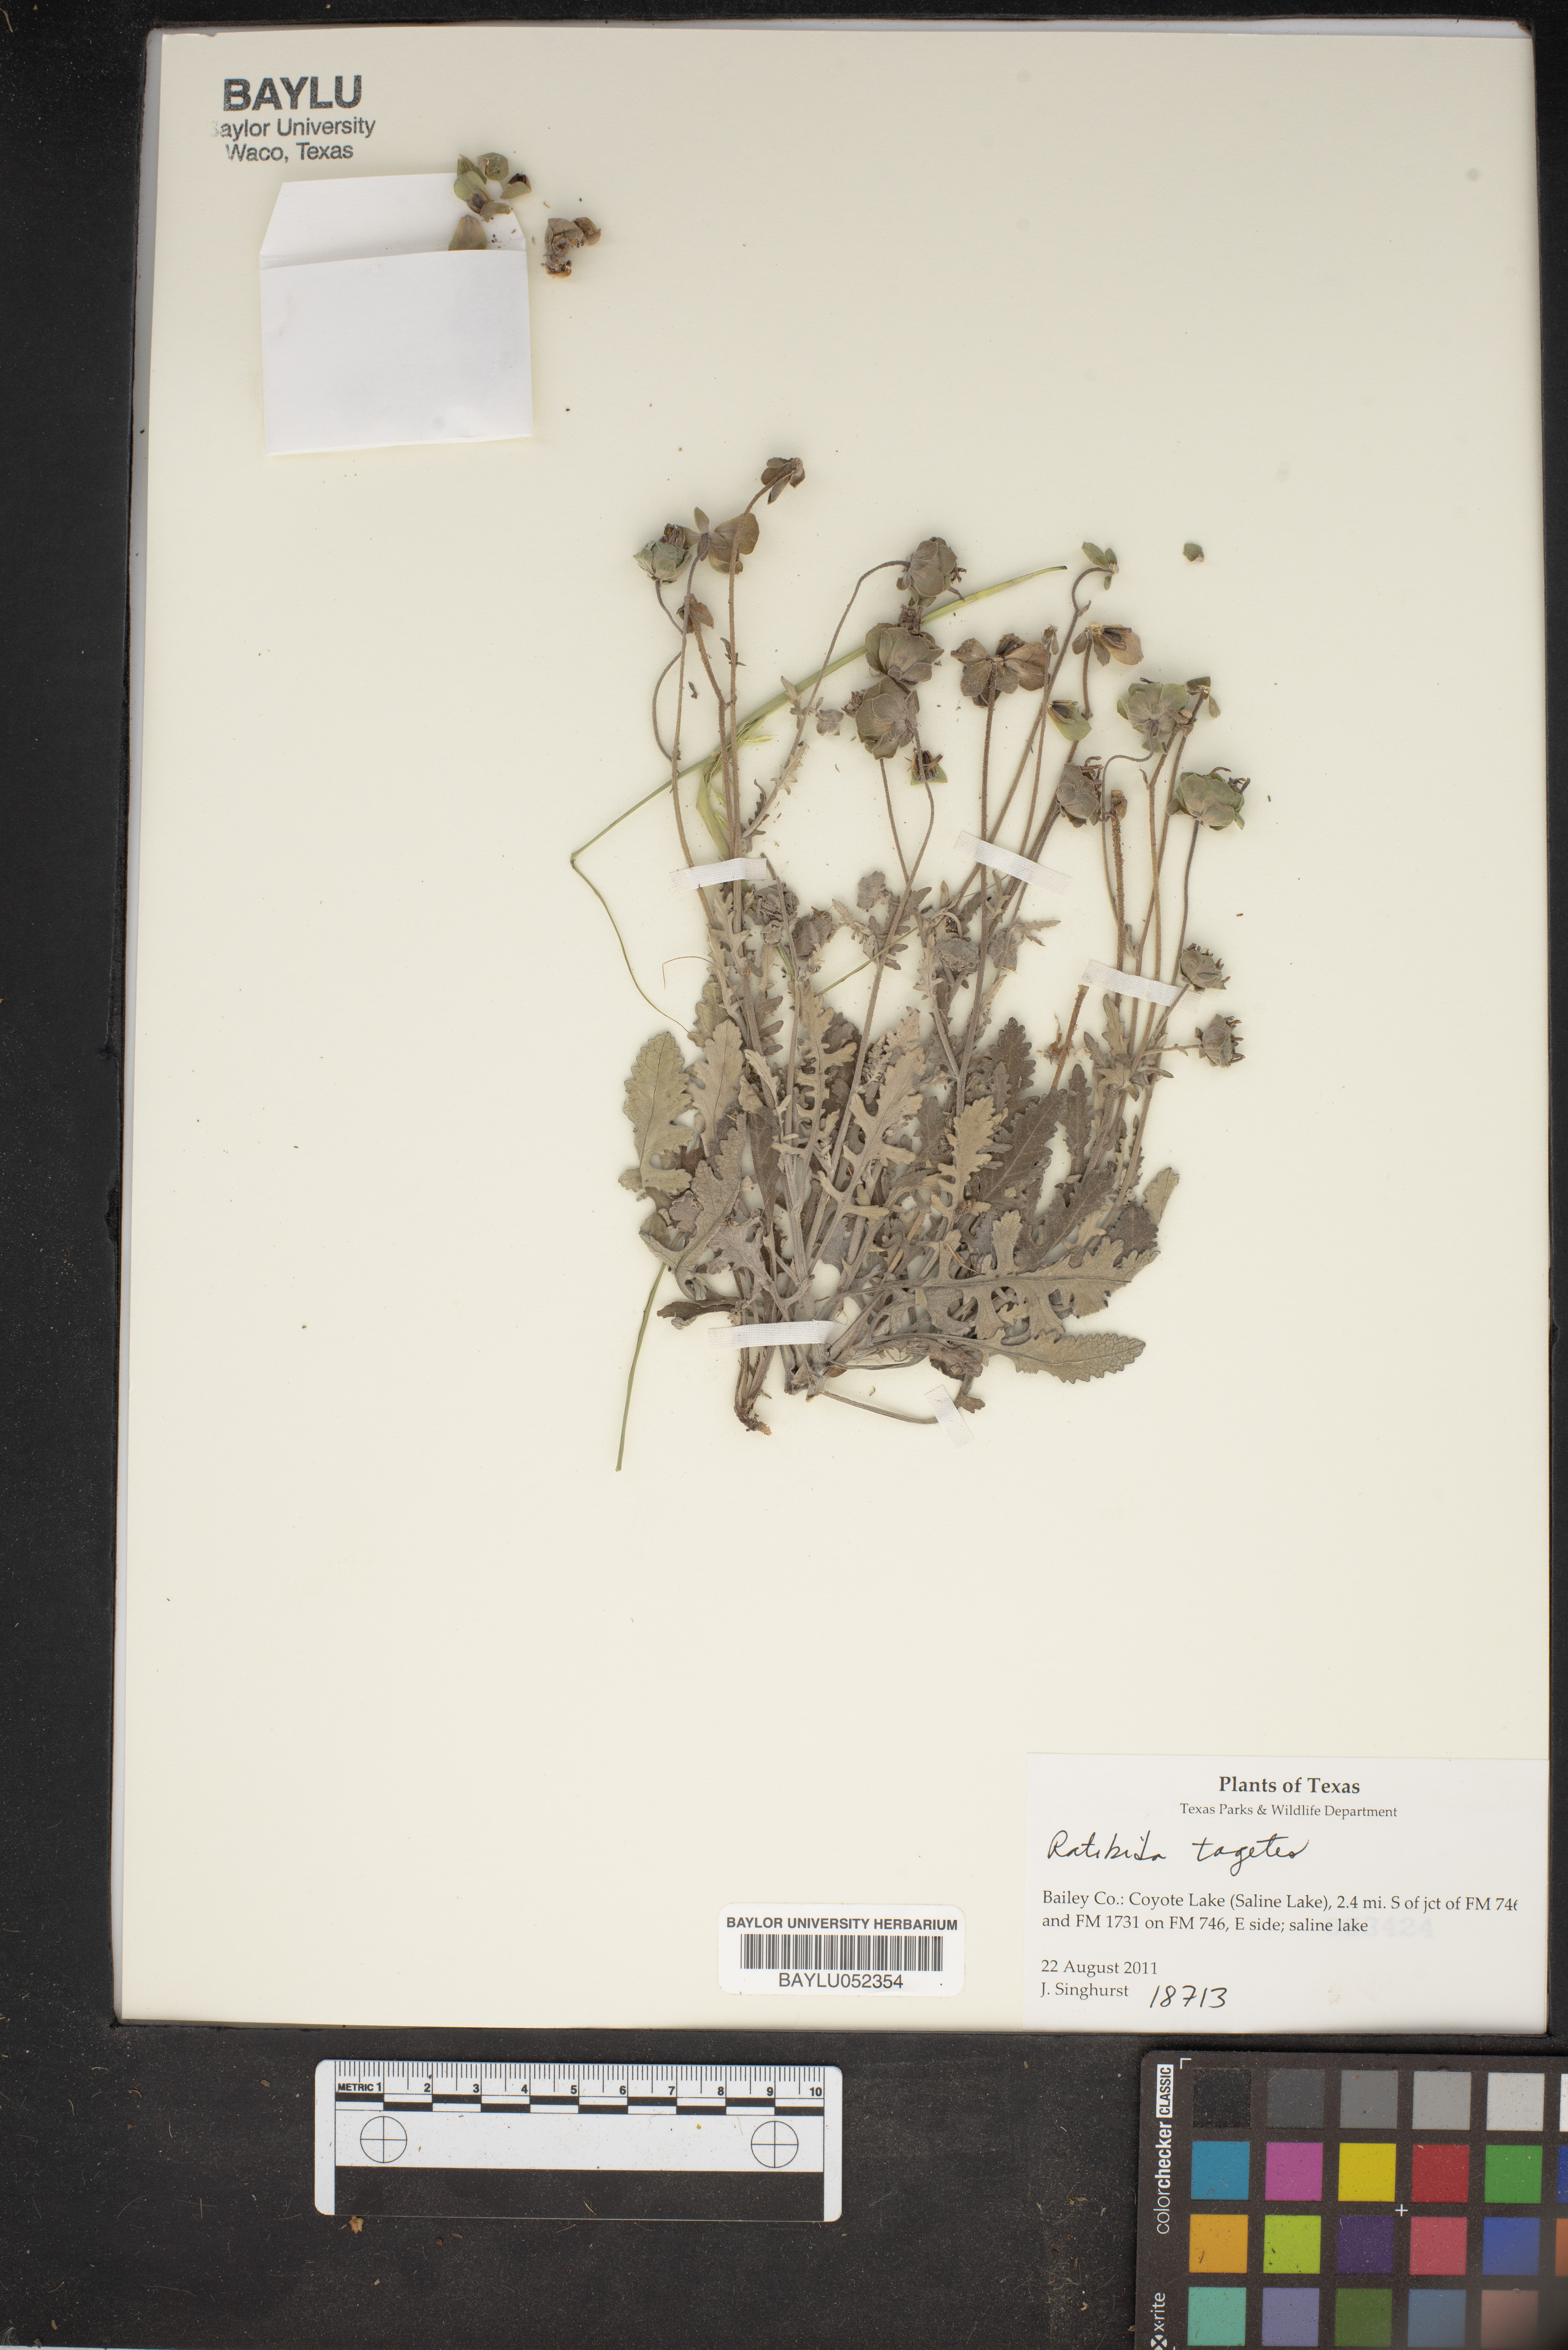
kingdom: Plantae
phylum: Tracheophyta
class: Magnoliopsida
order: Asterales
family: Asteraceae
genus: Ratibida
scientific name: Ratibida tagetes
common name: Green mexican-hat
